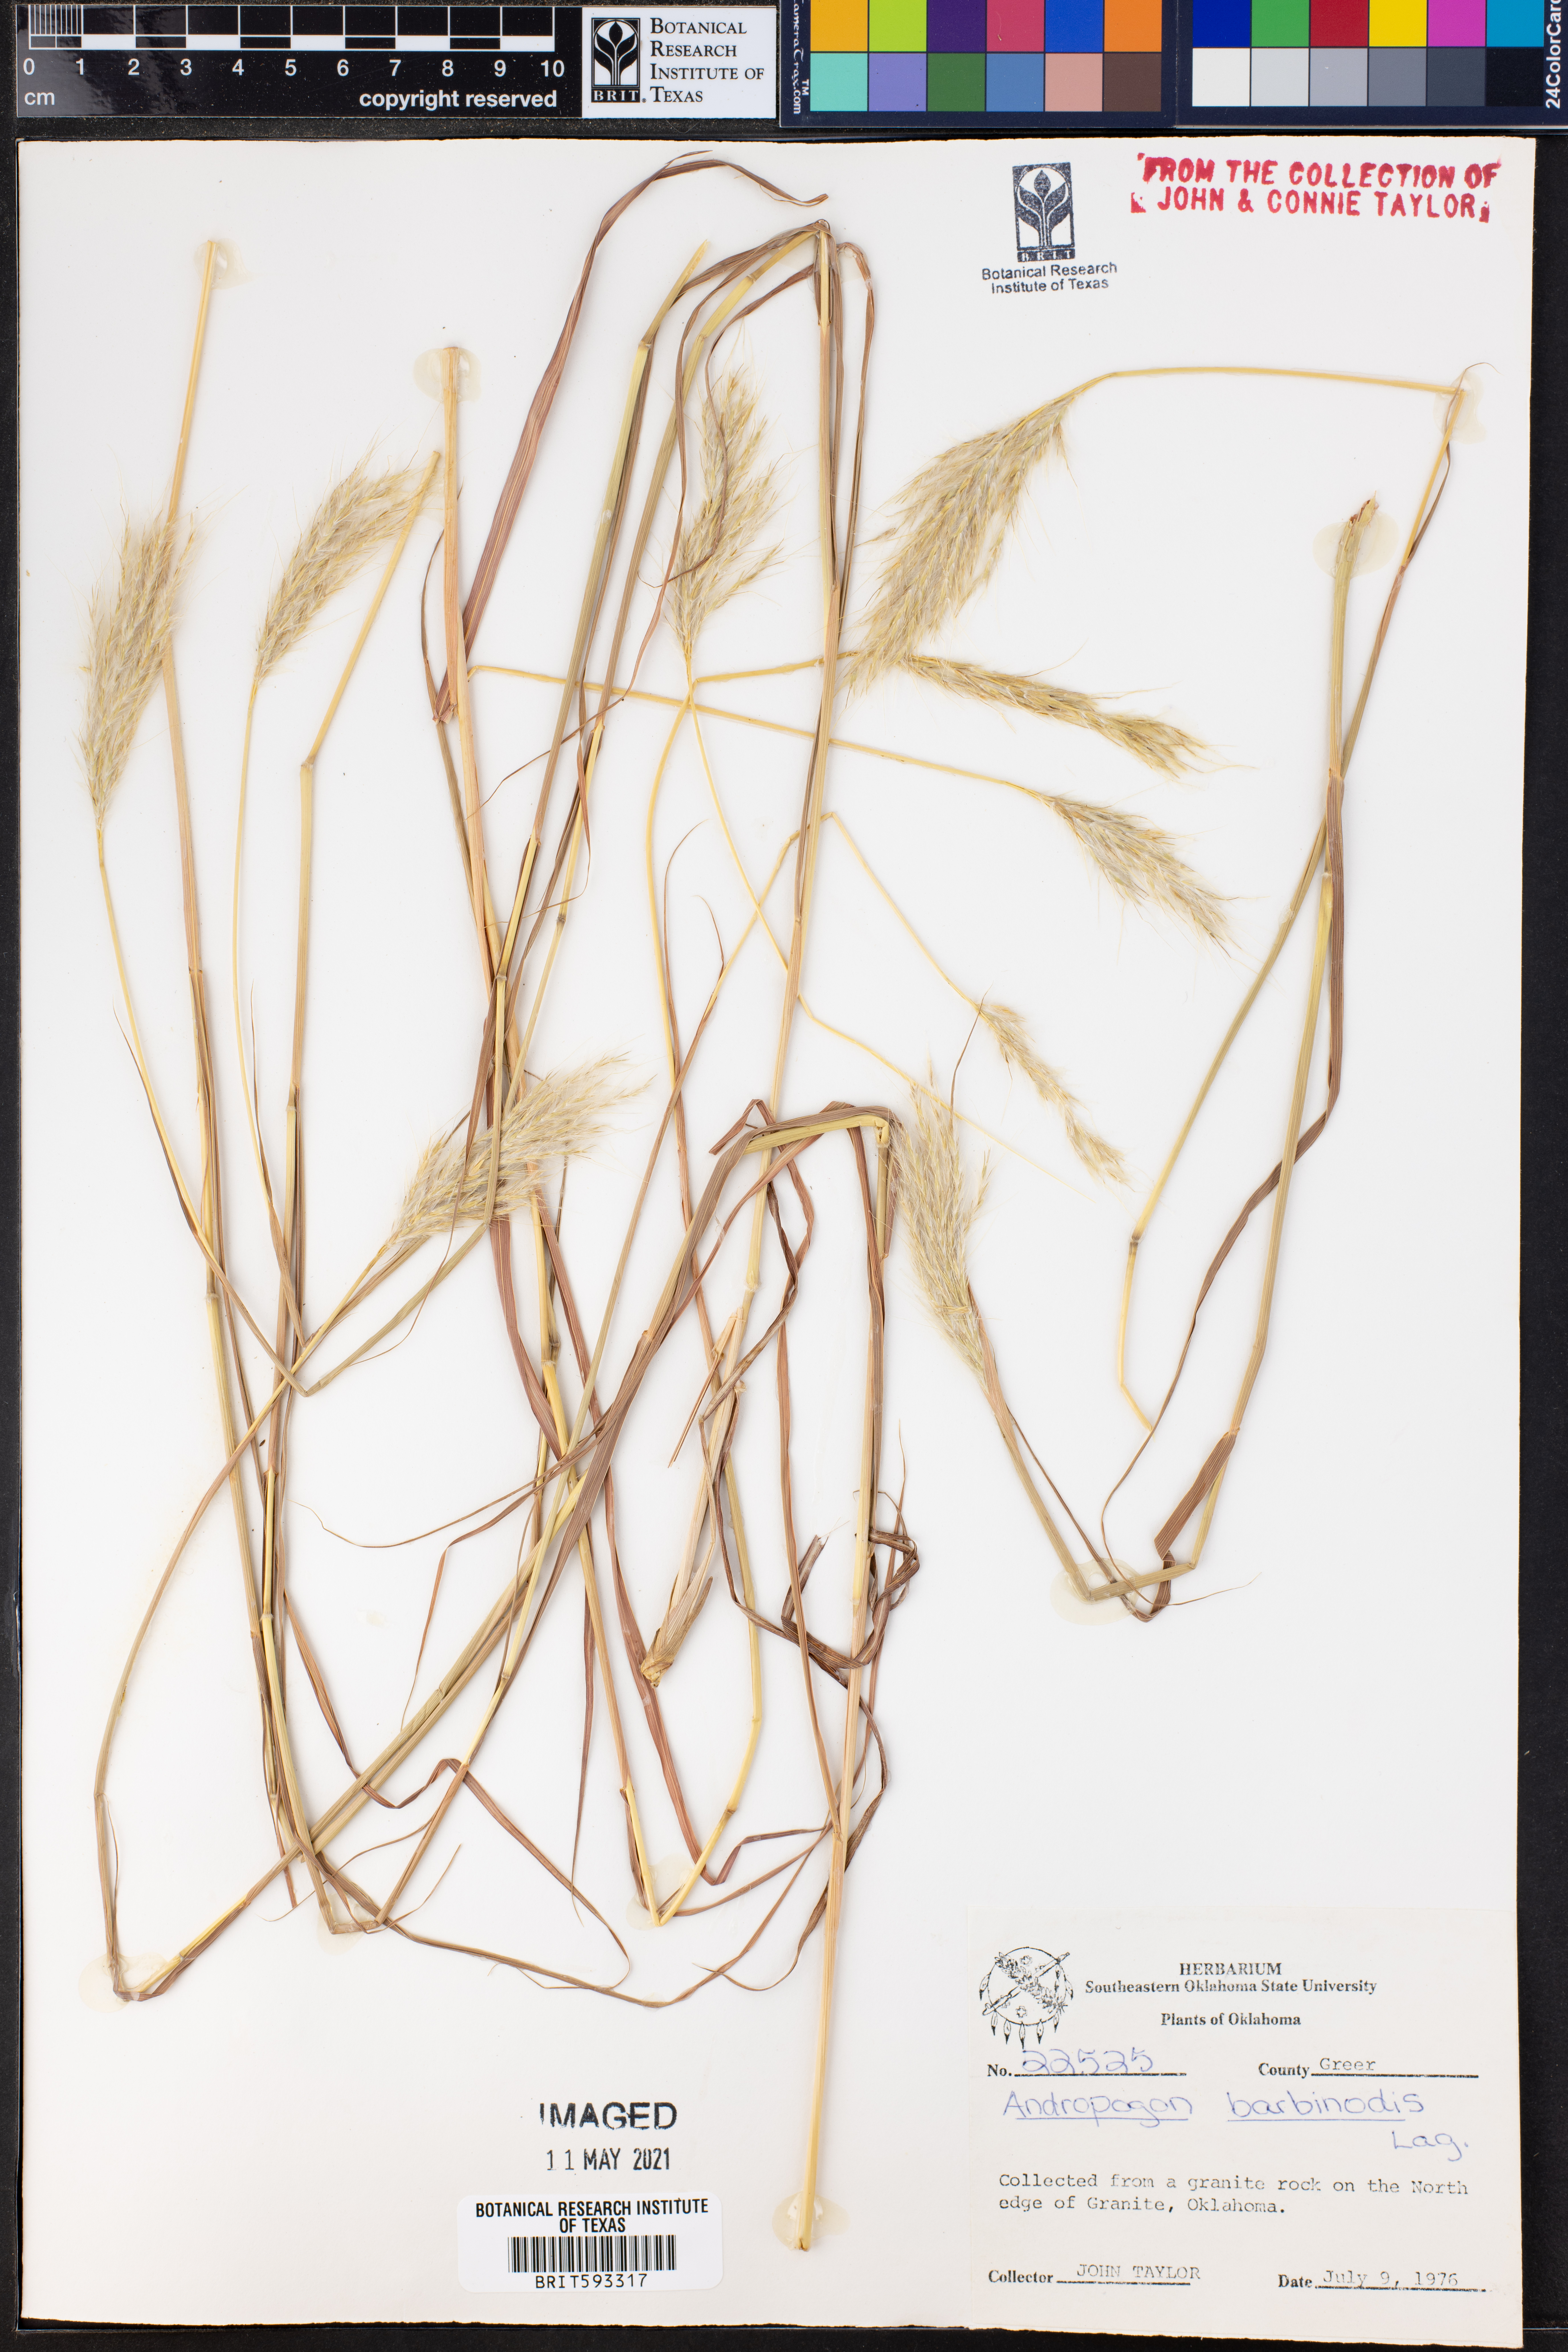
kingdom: Plantae
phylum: Tracheophyta
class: Liliopsida
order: Poales
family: Poaceae
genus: Bothriochloa
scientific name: Bothriochloa barbinodis
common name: Cane bluestem
